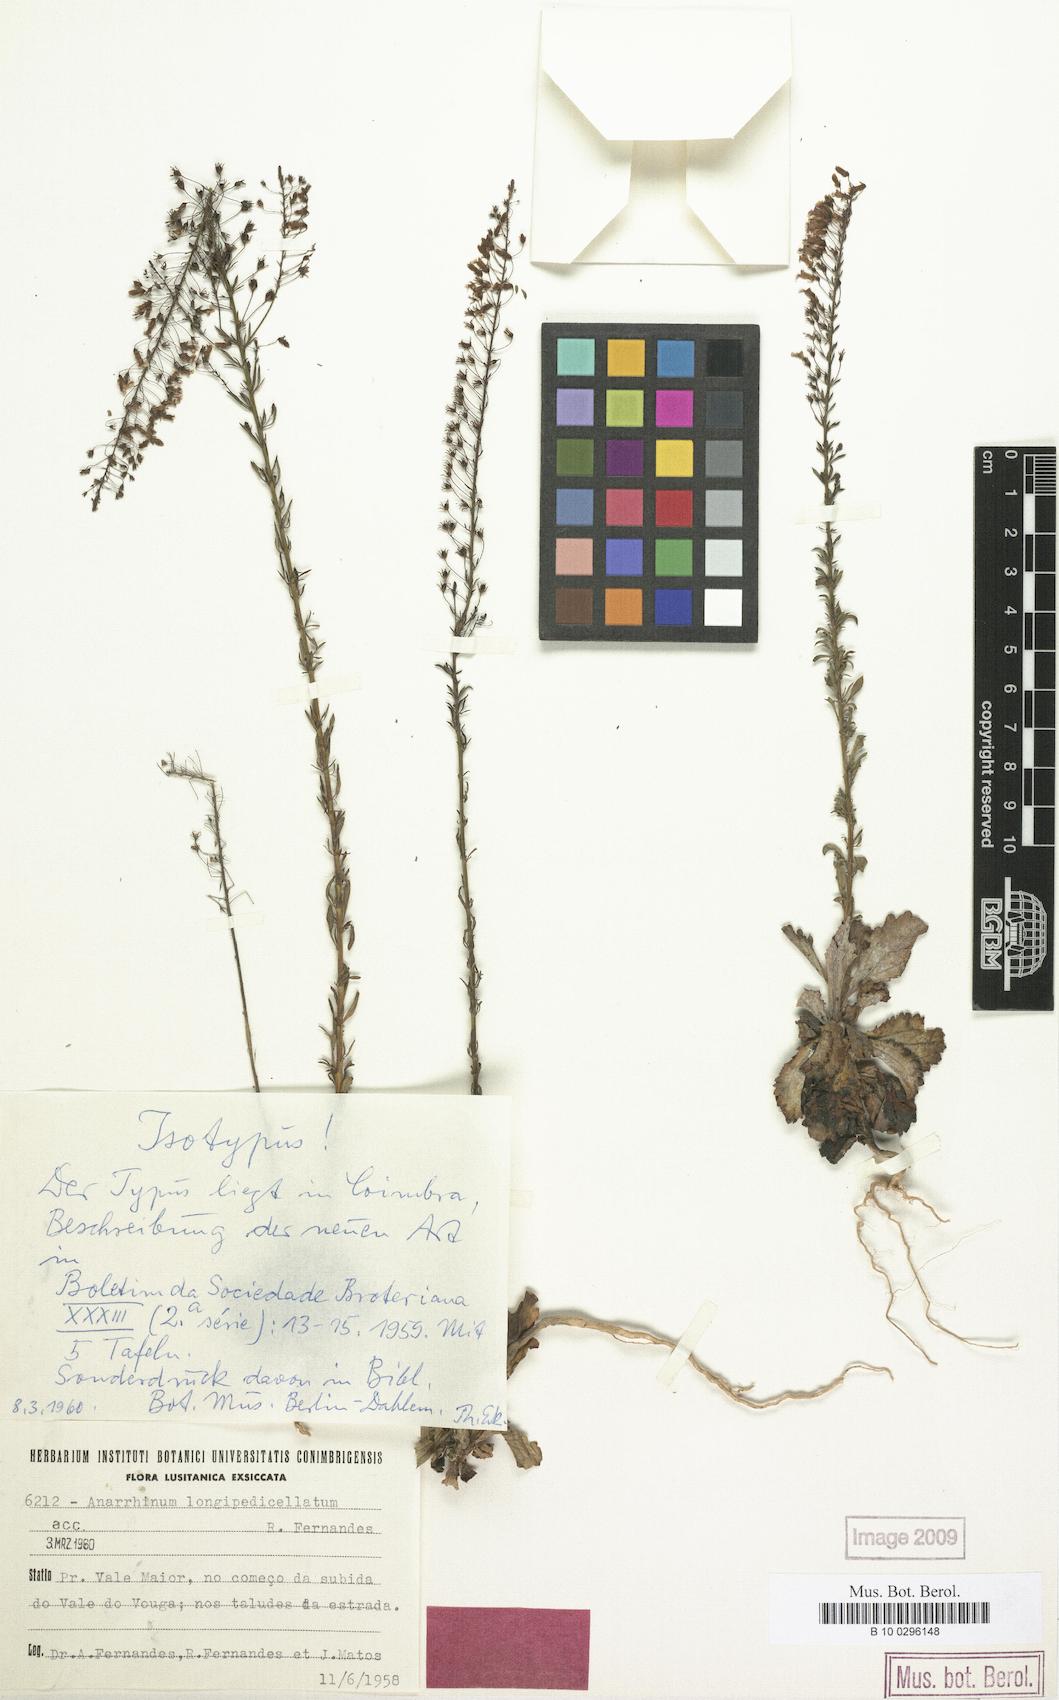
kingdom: Plantae
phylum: Tracheophyta
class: Magnoliopsida
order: Lamiales
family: Plantaginaceae
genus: Anarrhinum
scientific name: Anarrhinum longipedicellatum
